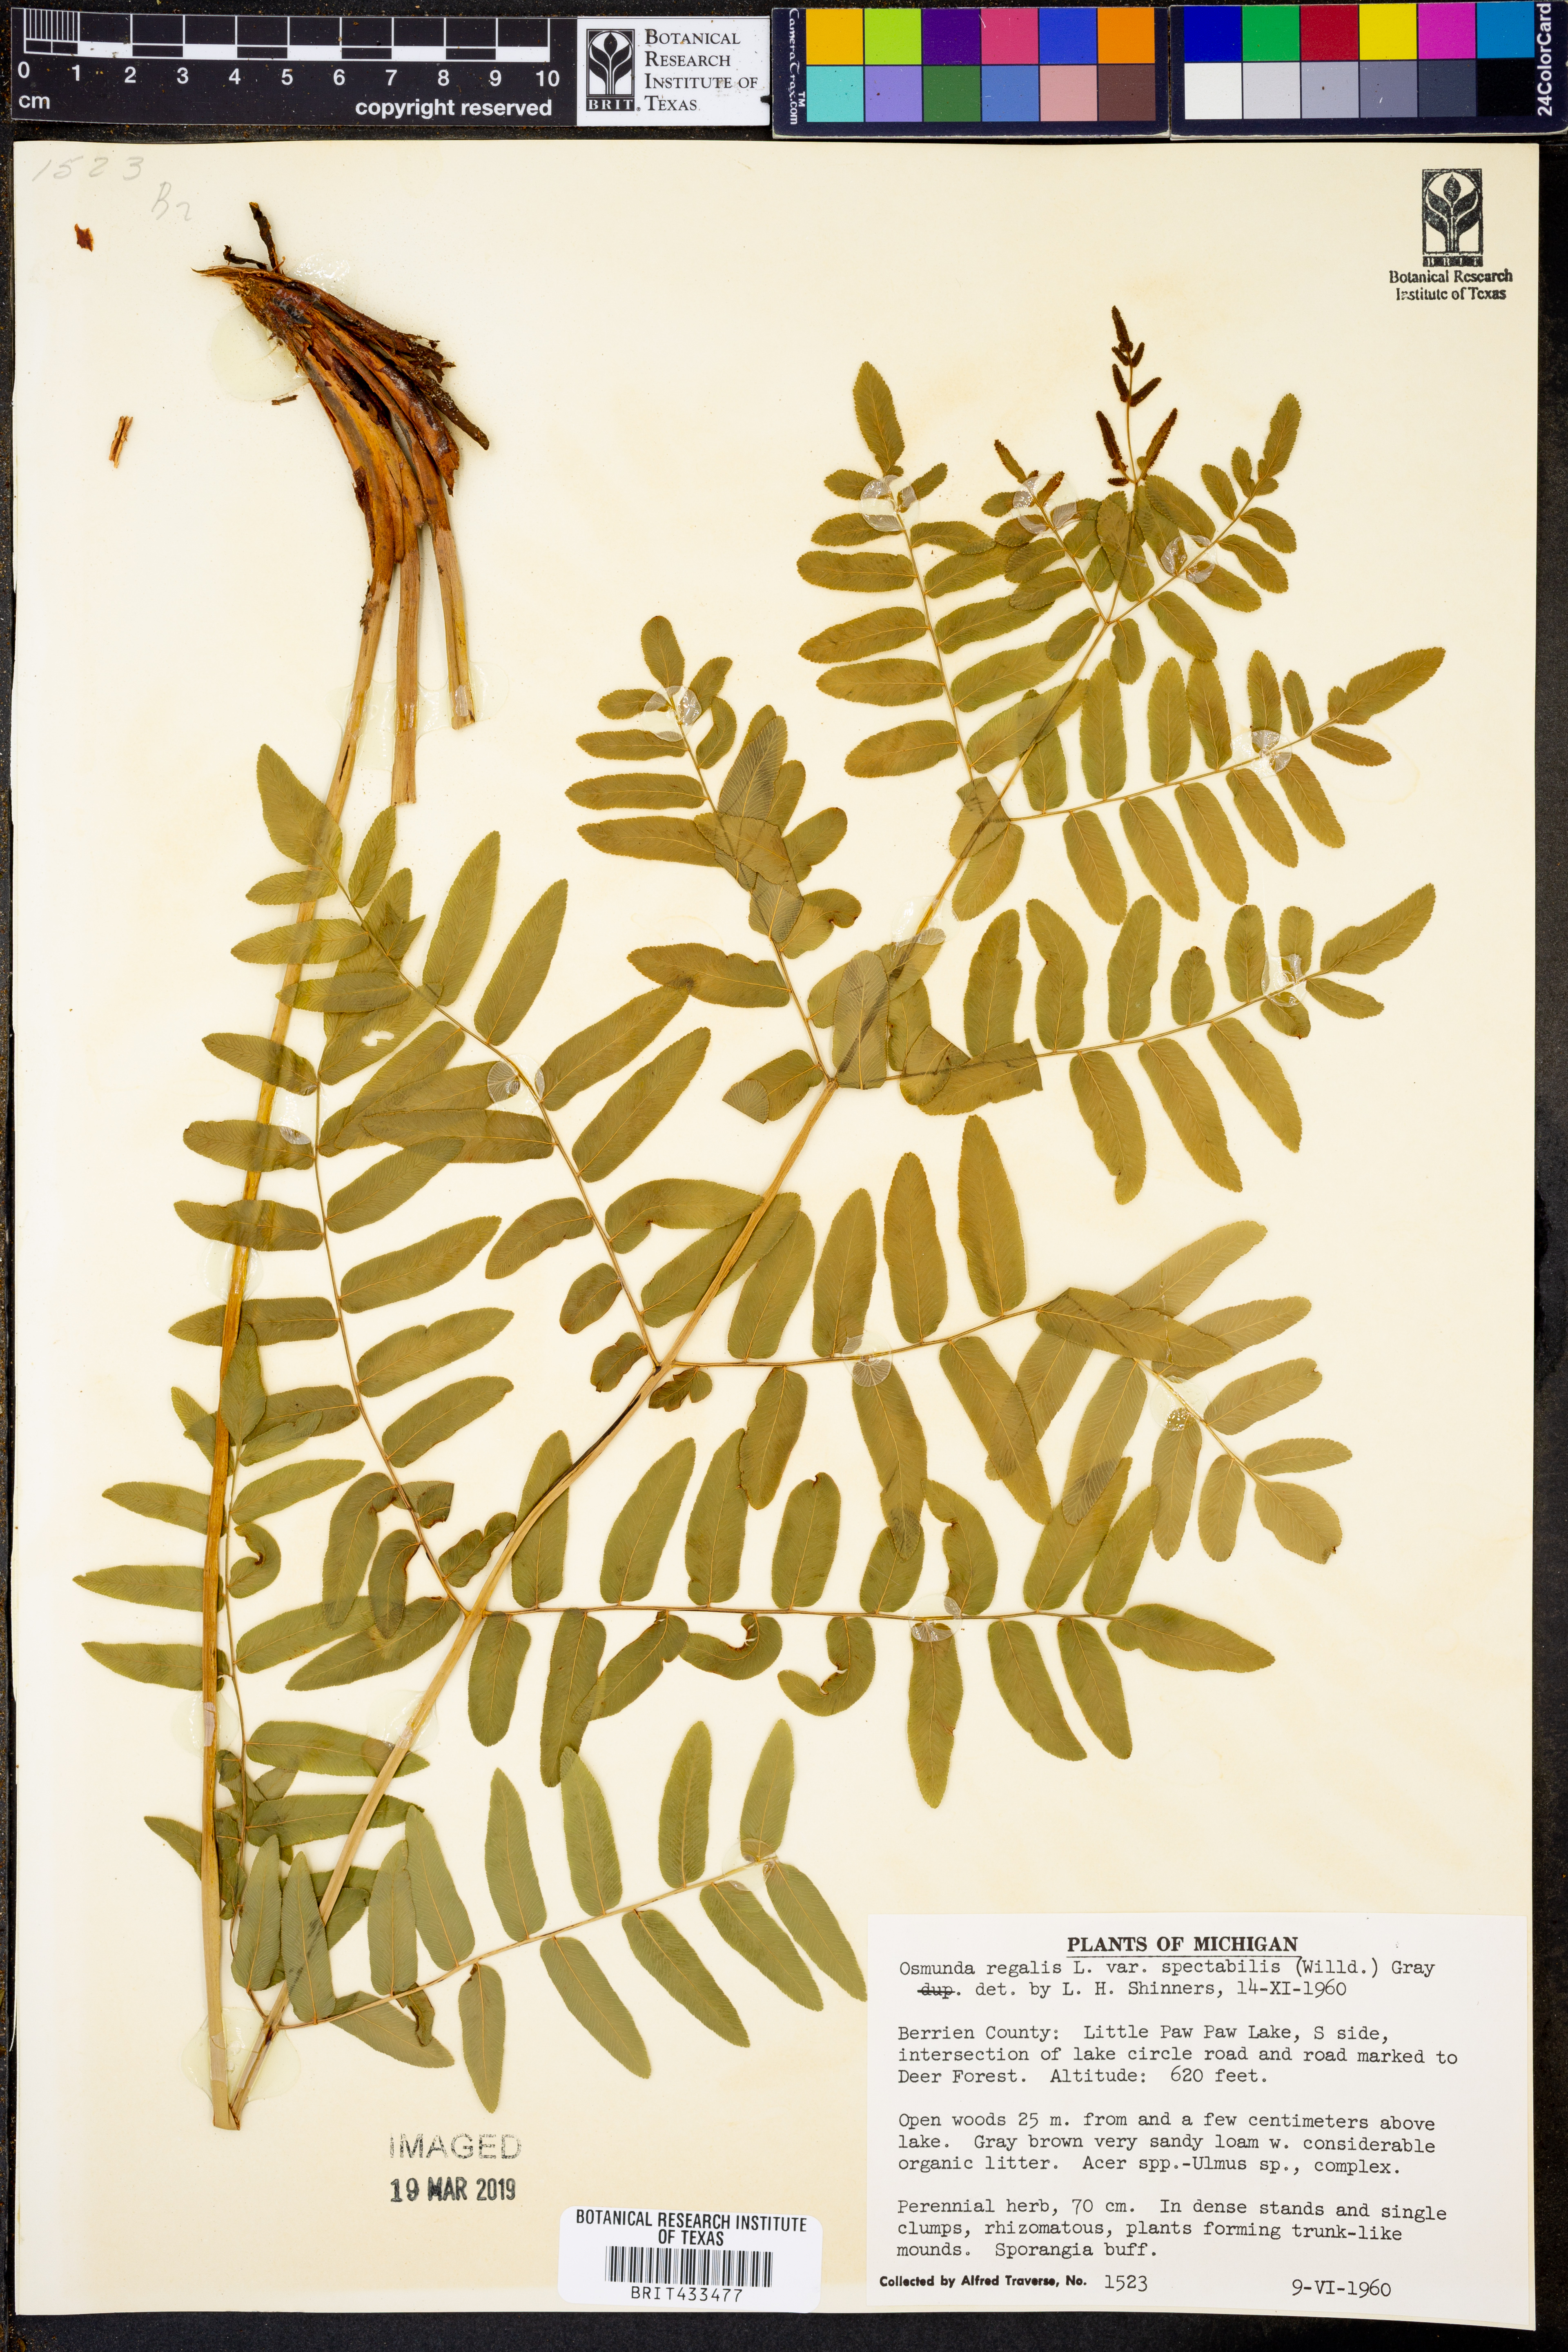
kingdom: Plantae
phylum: Tracheophyta
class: Polypodiopsida
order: Osmundales
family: Osmundaceae
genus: Osmunda
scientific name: Osmunda spectabilis
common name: American royal fern
